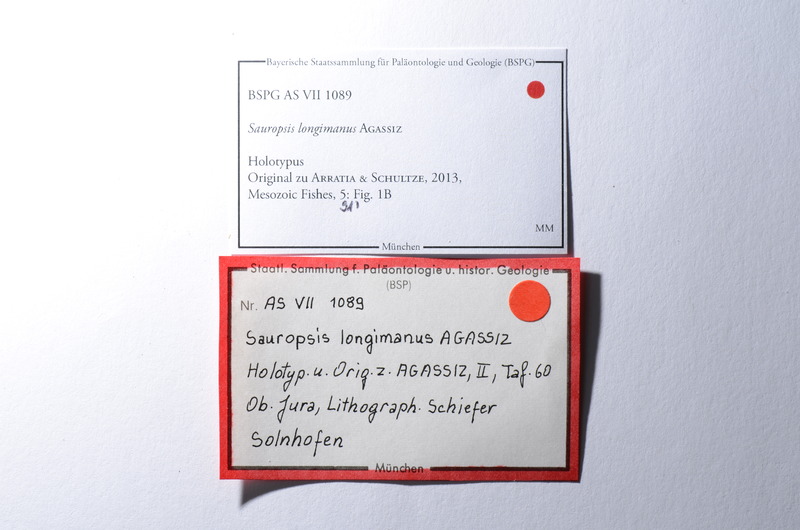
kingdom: Animalia
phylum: Chordata
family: Pachycormidae
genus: Sauropsis
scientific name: Sauropsis longimanus
